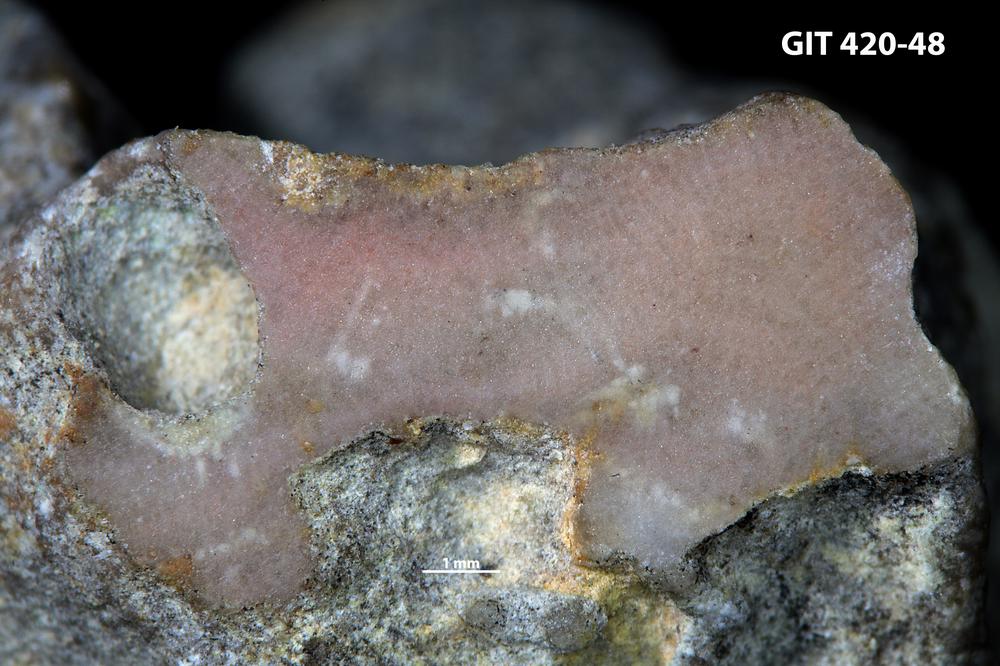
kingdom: Animalia
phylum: Bryozoa
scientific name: Bryozoa
